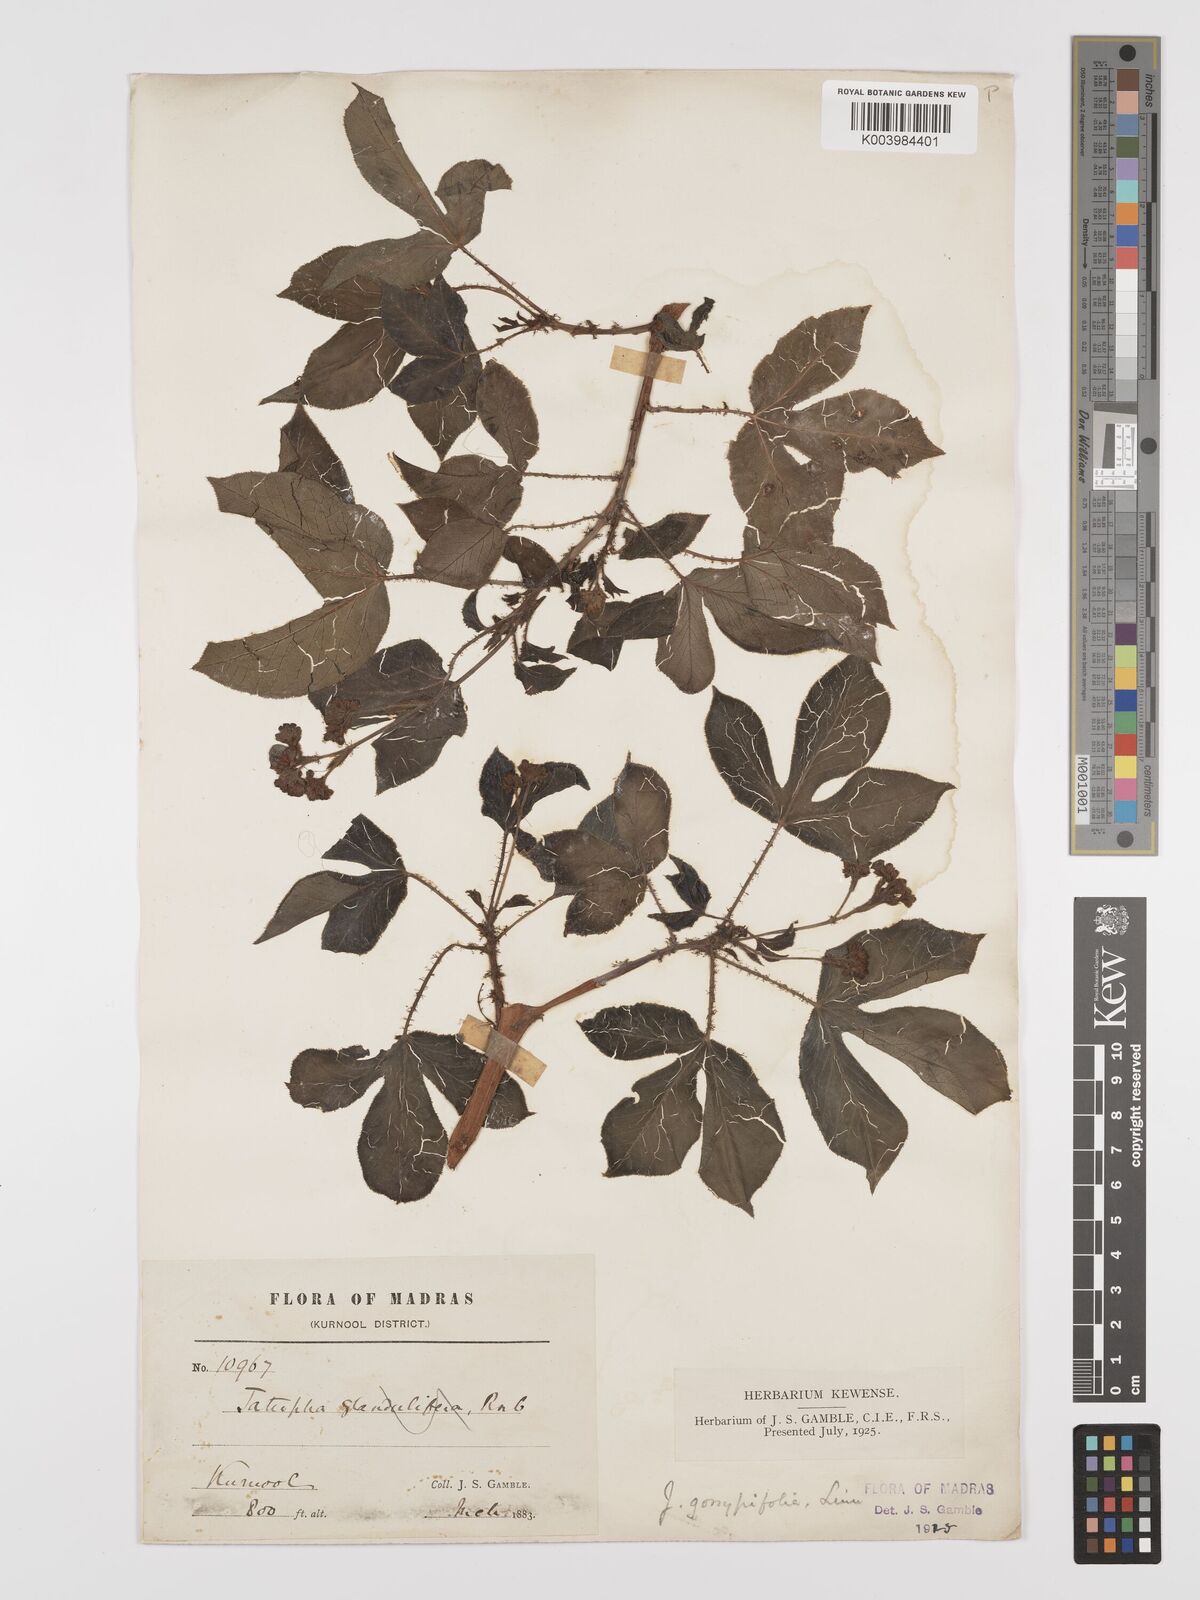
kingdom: Plantae
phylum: Tracheophyta
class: Magnoliopsida
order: Malpighiales
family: Euphorbiaceae
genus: Jatropha
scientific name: Jatropha gossypiifolia
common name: Bellyache bush
